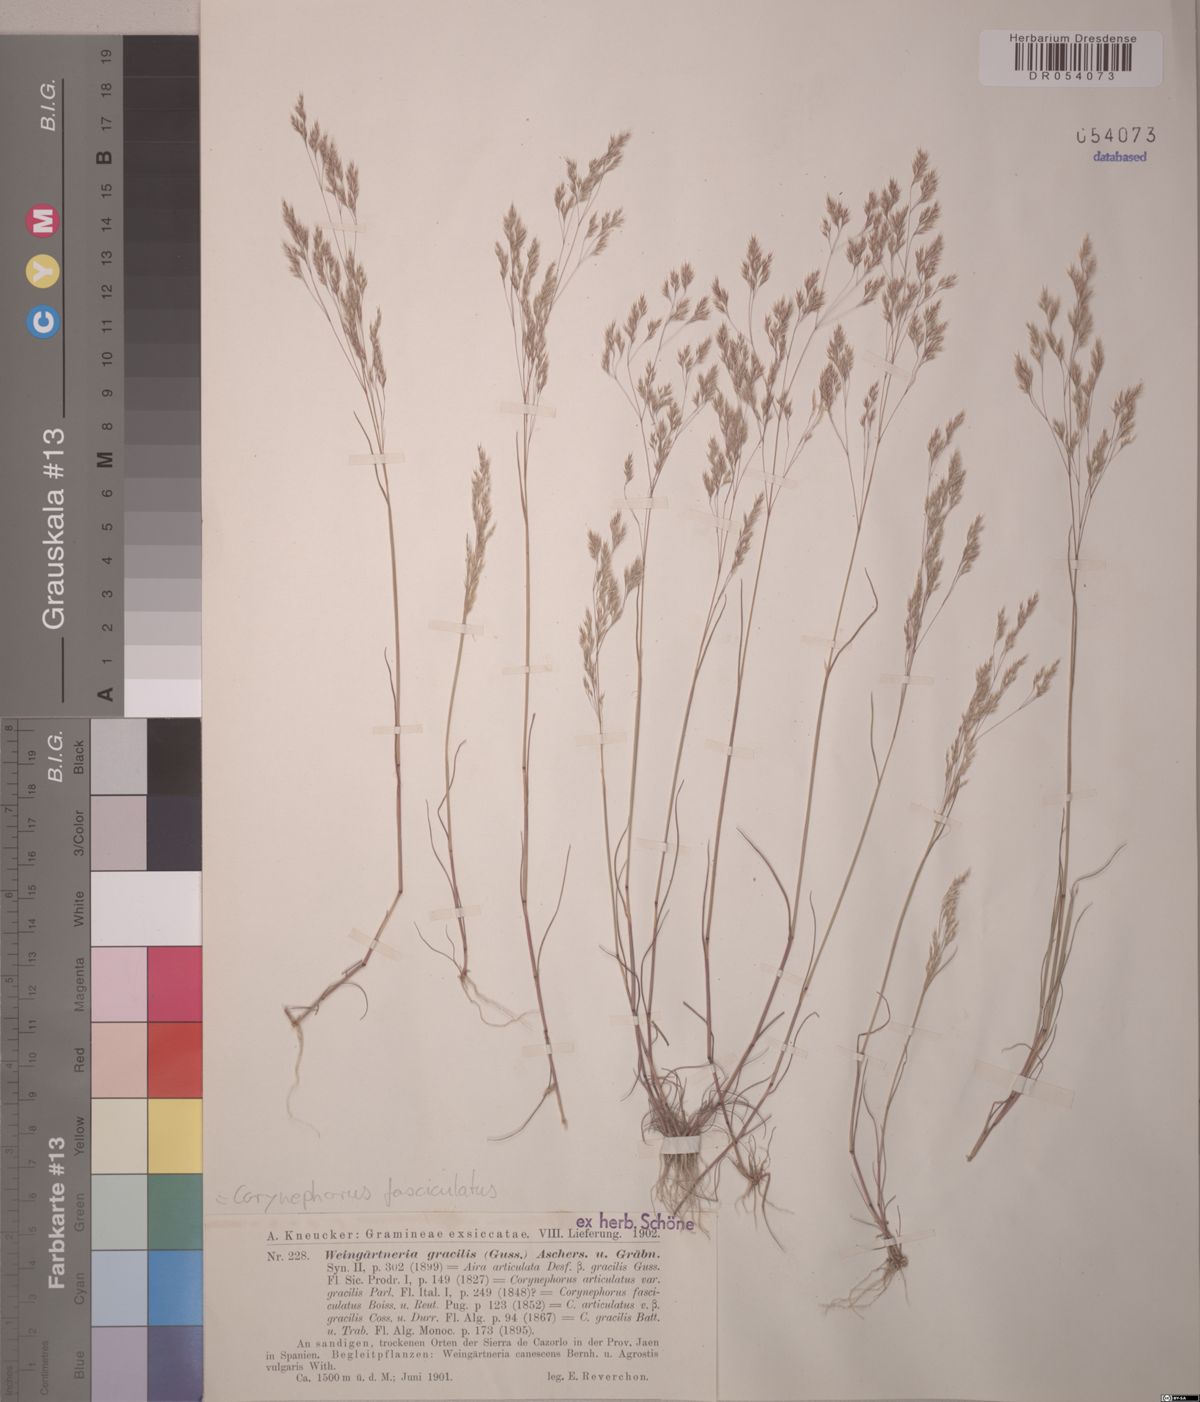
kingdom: Plantae
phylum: Tracheophyta
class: Liliopsida
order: Poales
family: Poaceae
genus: Corynephorus
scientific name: Corynephorus fasciculatus
